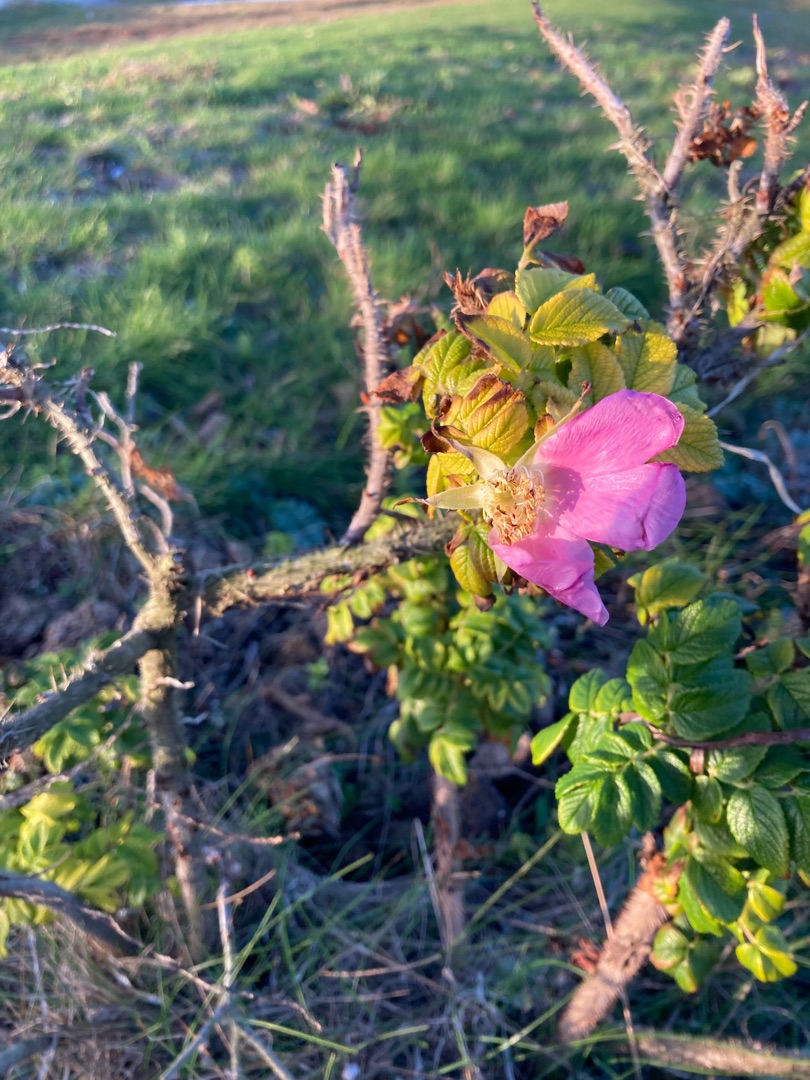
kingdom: Plantae
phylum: Tracheophyta
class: Magnoliopsida
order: Rosales
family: Rosaceae
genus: Rosa
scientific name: Rosa rugosa
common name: Rynket rose
